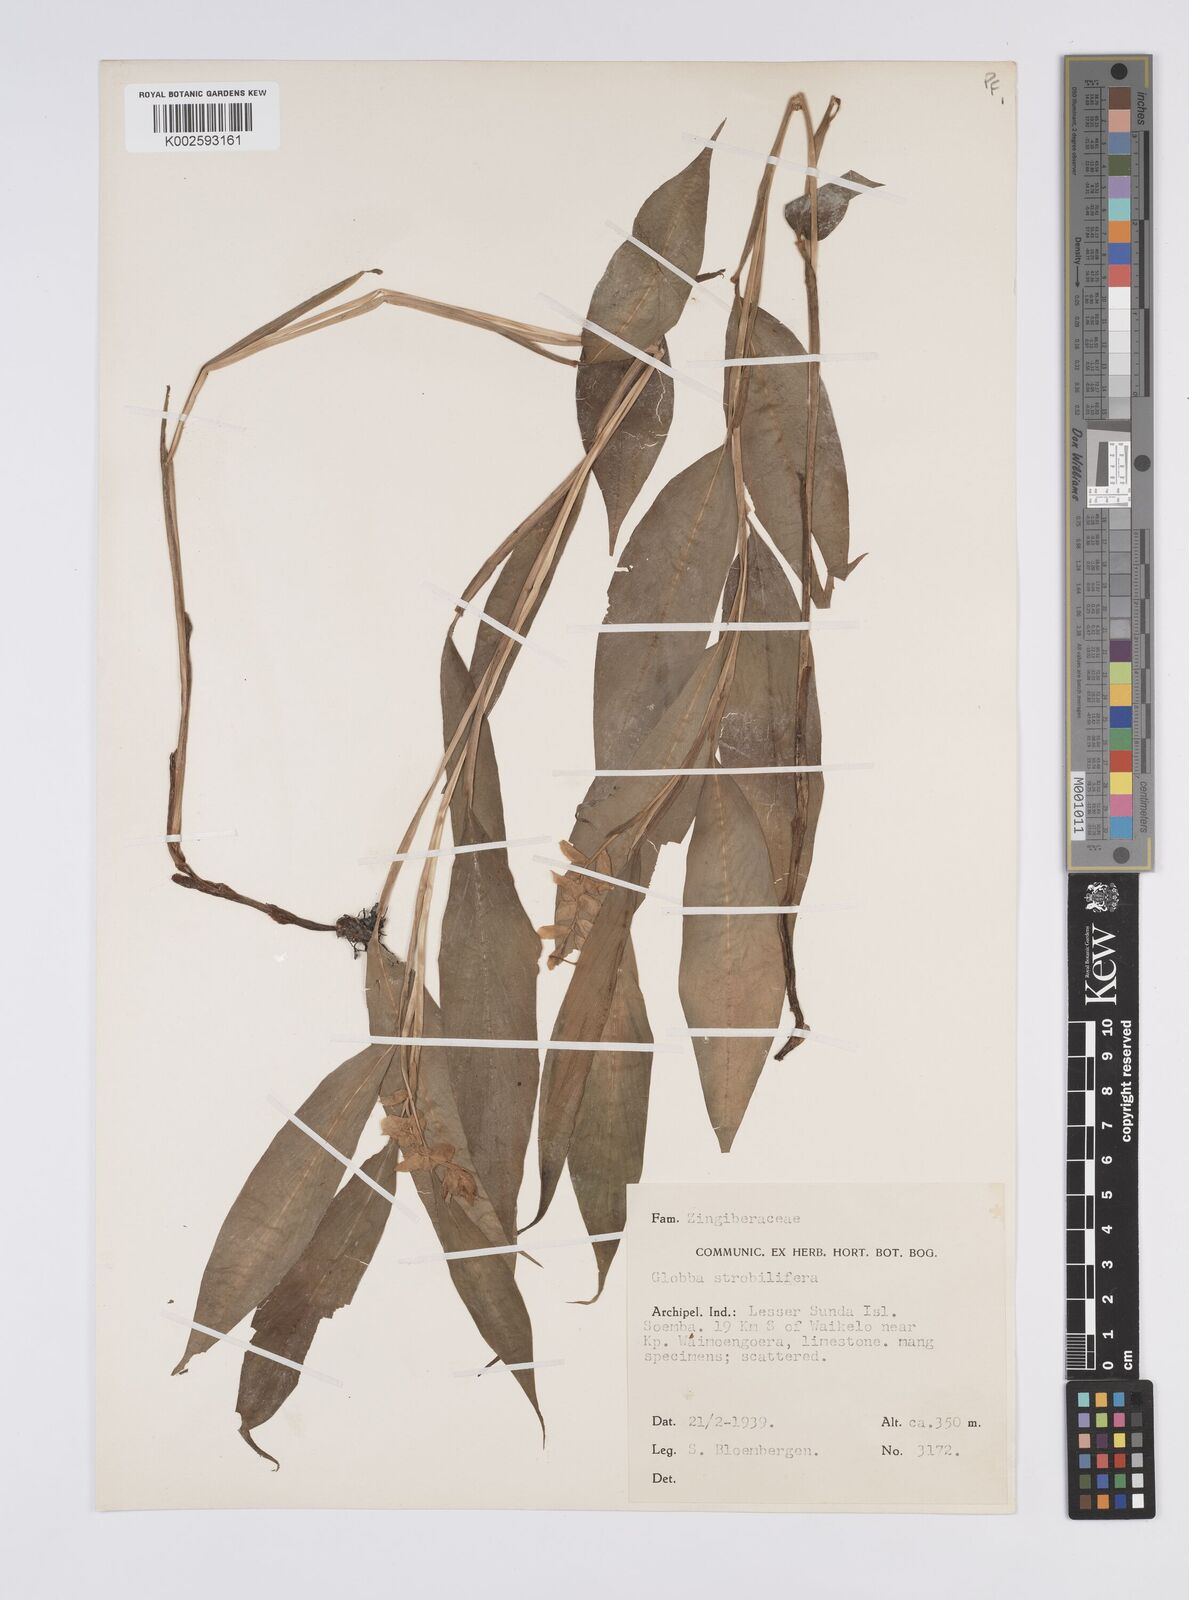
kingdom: Plantae
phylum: Tracheophyta
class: Liliopsida
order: Zingiberales
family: Zingiberaceae
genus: Globba
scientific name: Globba
